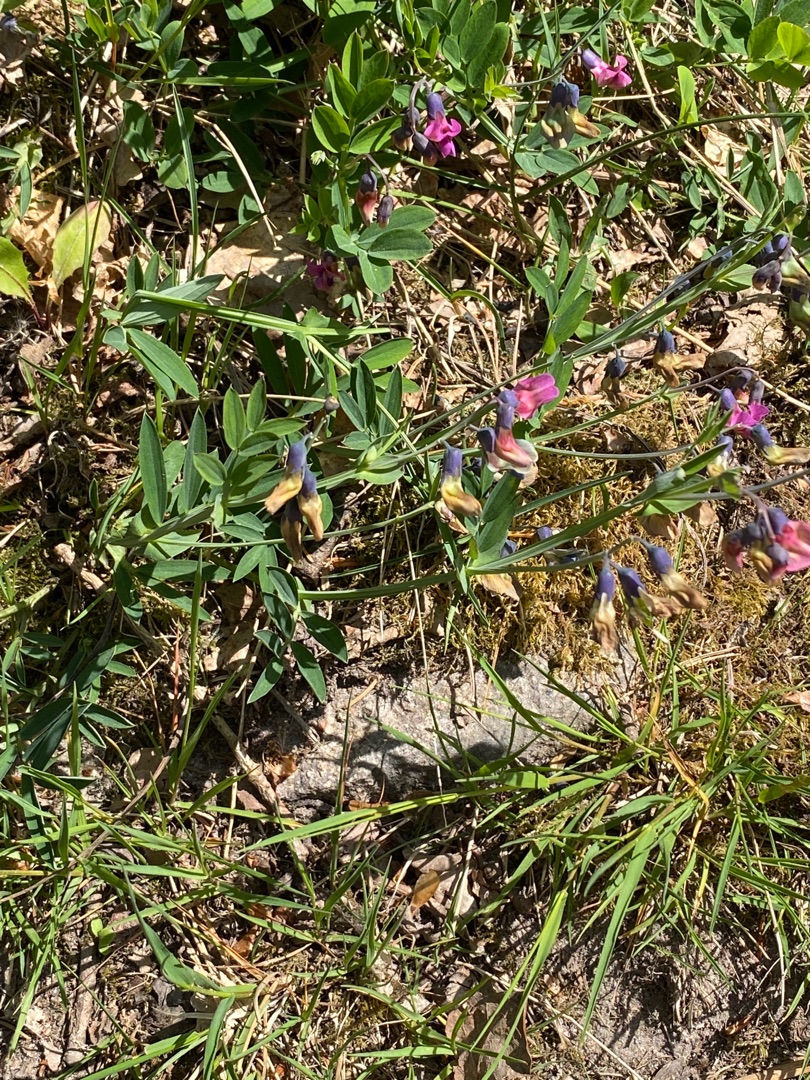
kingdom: Plantae
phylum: Tracheophyta
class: Magnoliopsida
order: Fabales
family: Fabaceae
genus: Lathyrus
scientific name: Lathyrus linifolius
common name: Krat-fladbælg
